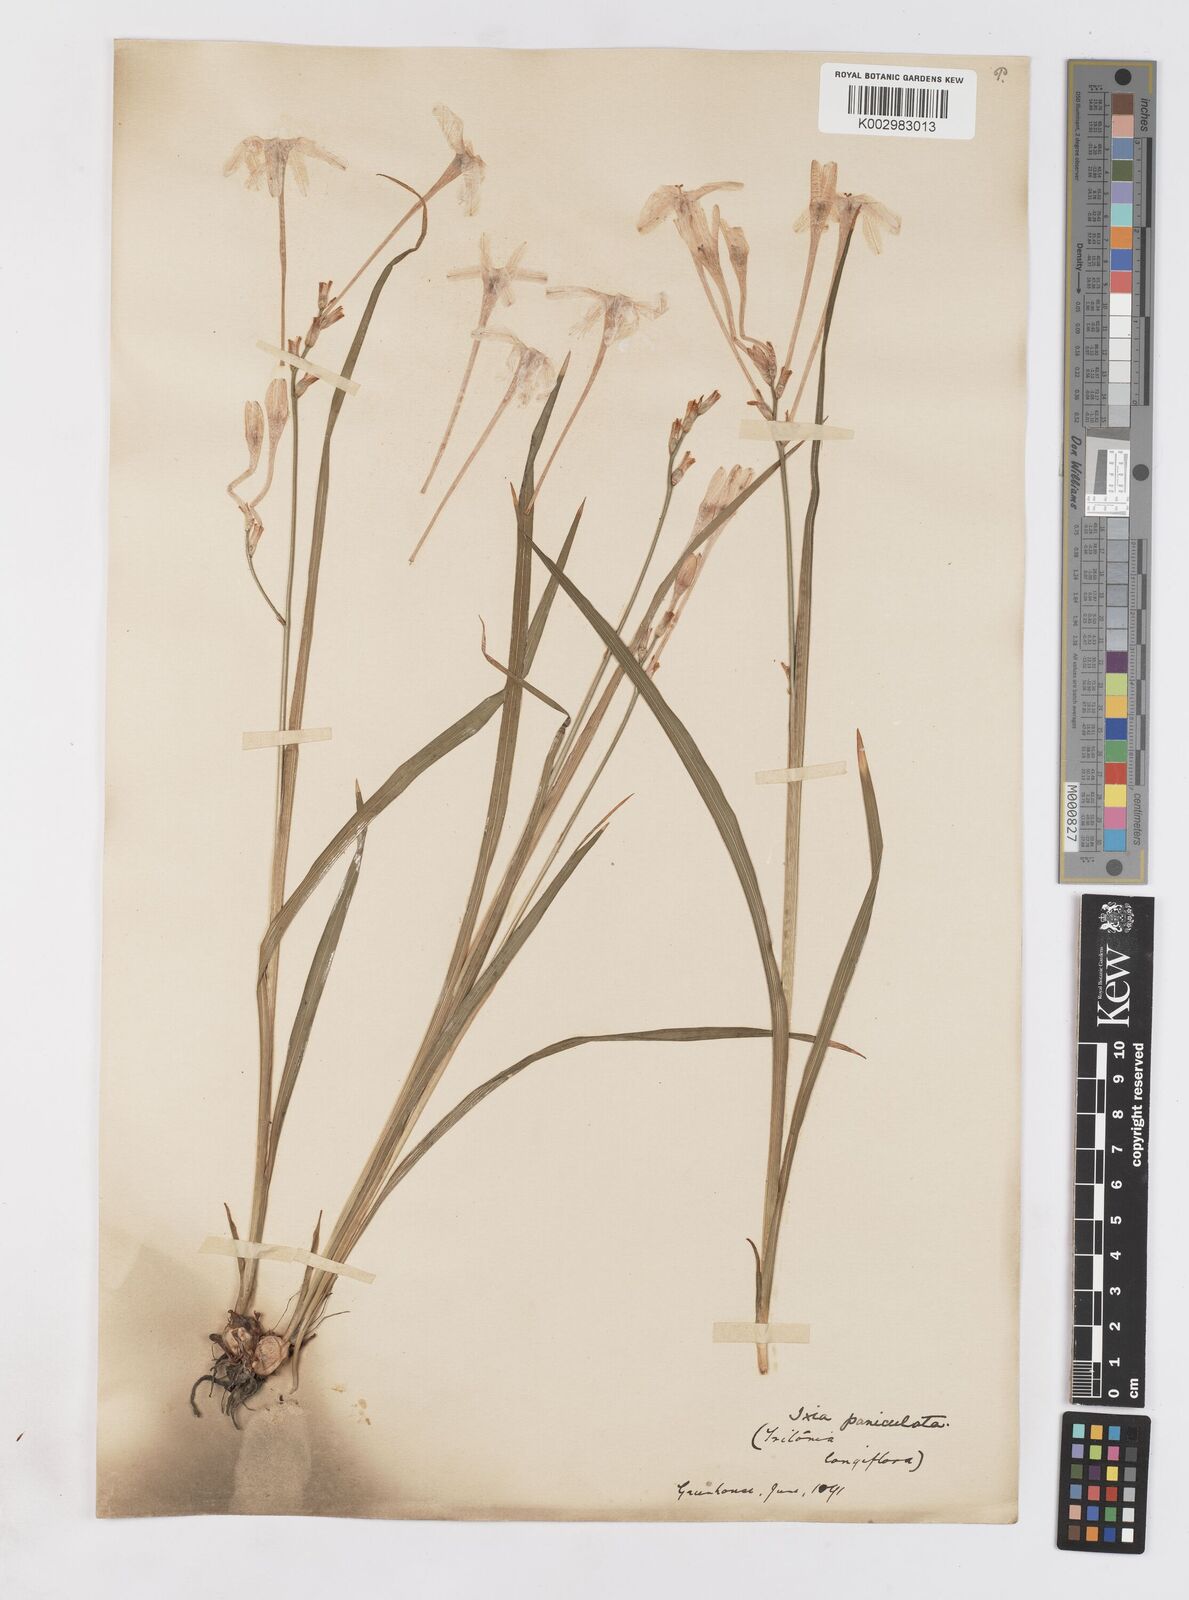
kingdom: Plantae
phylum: Tracheophyta
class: Liliopsida
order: Asparagales
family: Iridaceae
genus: Ixia
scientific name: Ixia paniculata
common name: Tubular corn-lily
